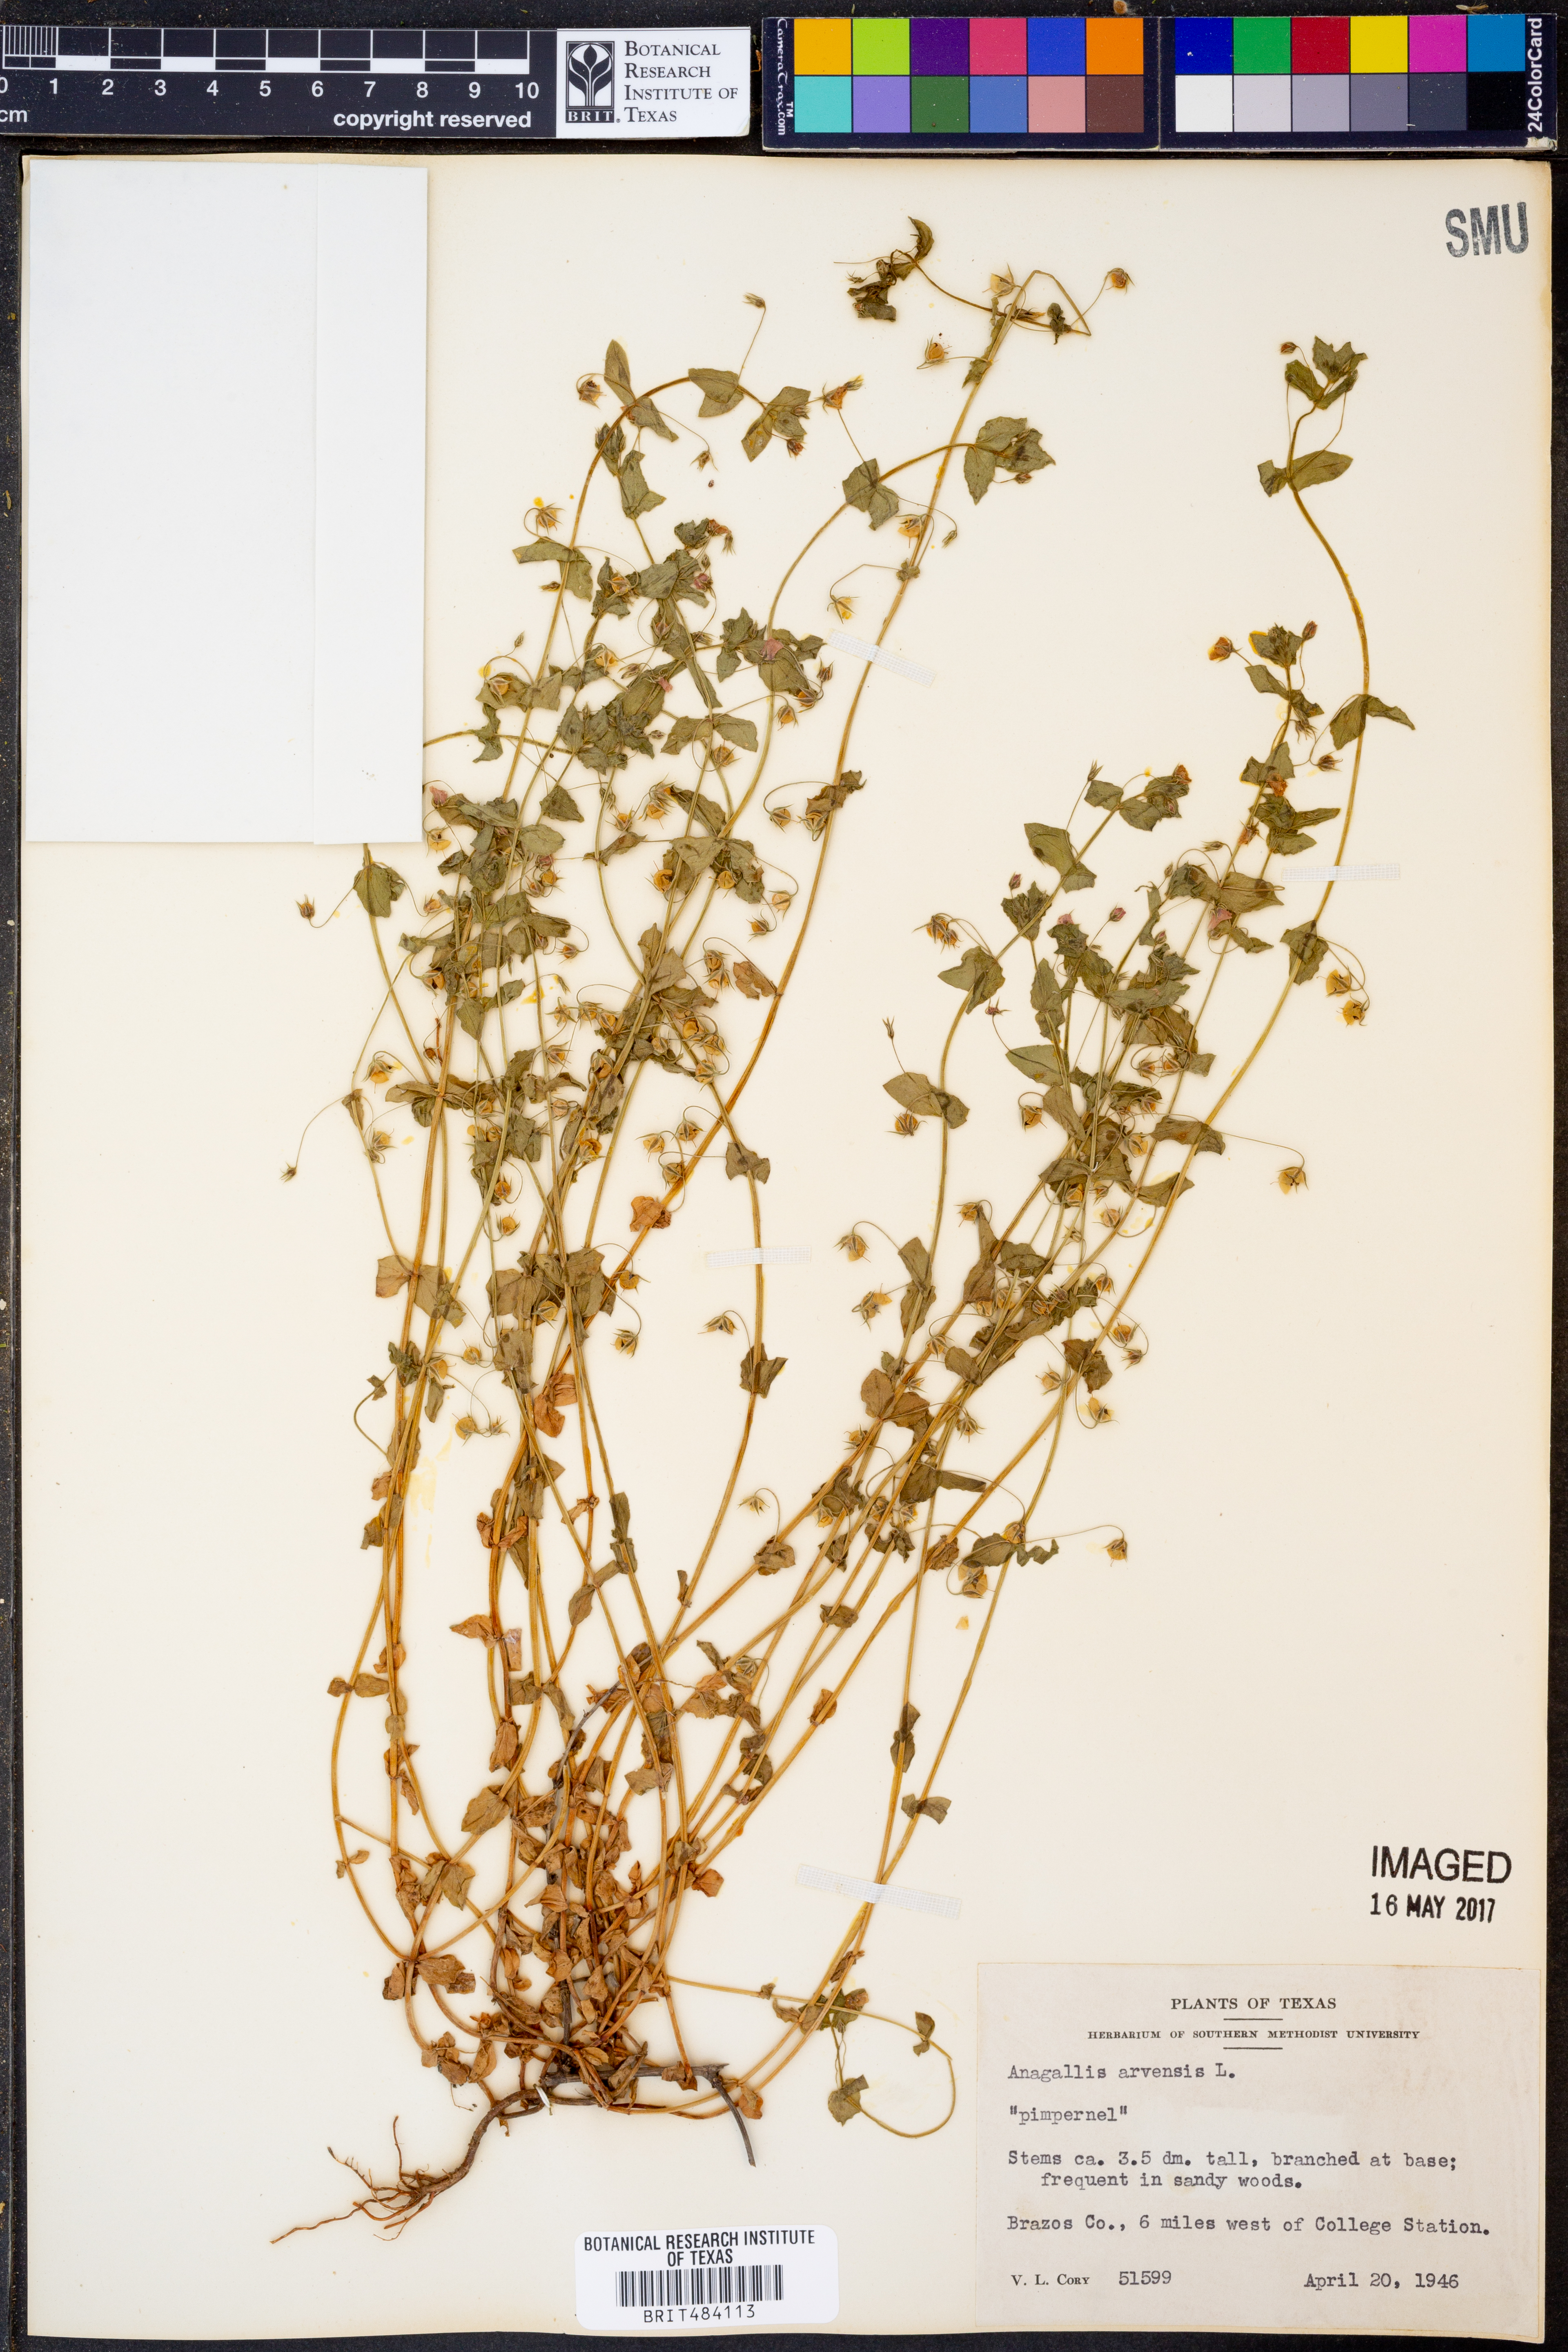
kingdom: Plantae
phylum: Tracheophyta
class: Magnoliopsida
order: Ericales
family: Primulaceae
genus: Lysimachia
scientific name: Lysimachia arvensis
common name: Scarlet pimpernel
